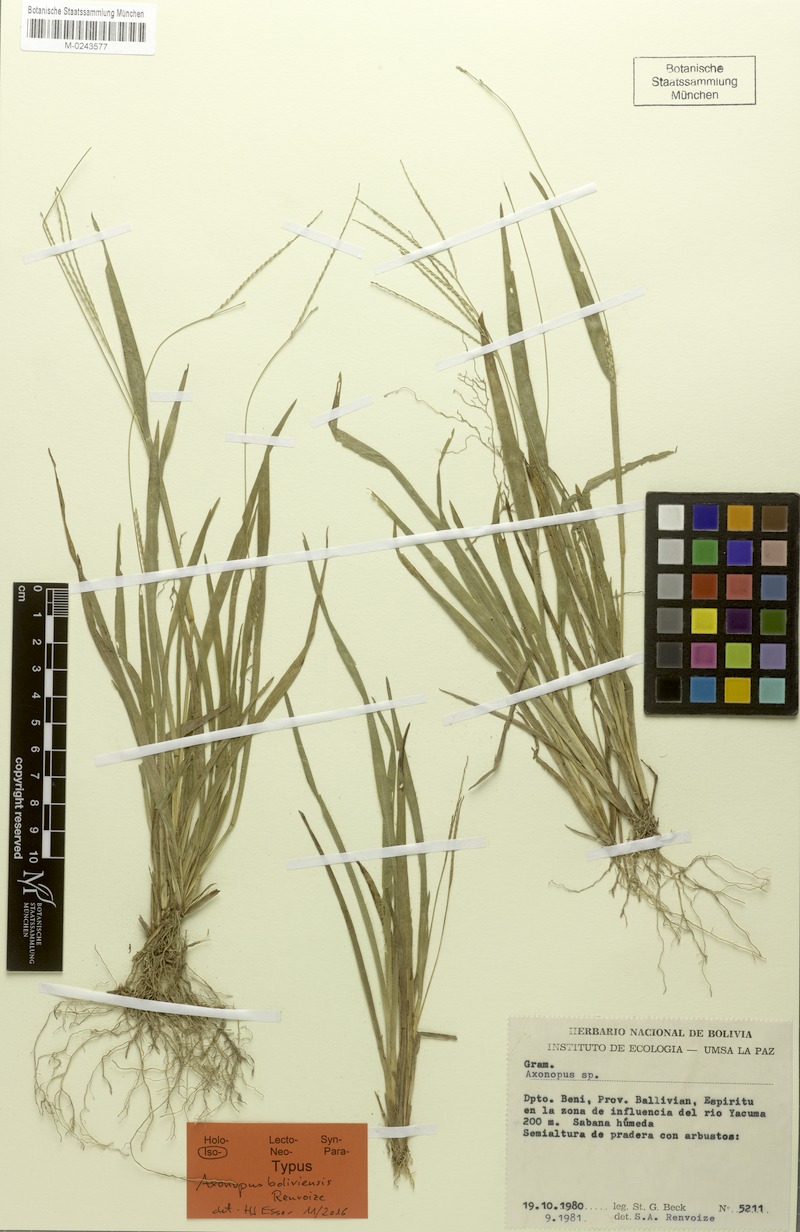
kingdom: Plantae
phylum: Tracheophyta
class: Liliopsida
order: Poales
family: Poaceae
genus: Axonopus
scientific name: Axonopus boliviensis
